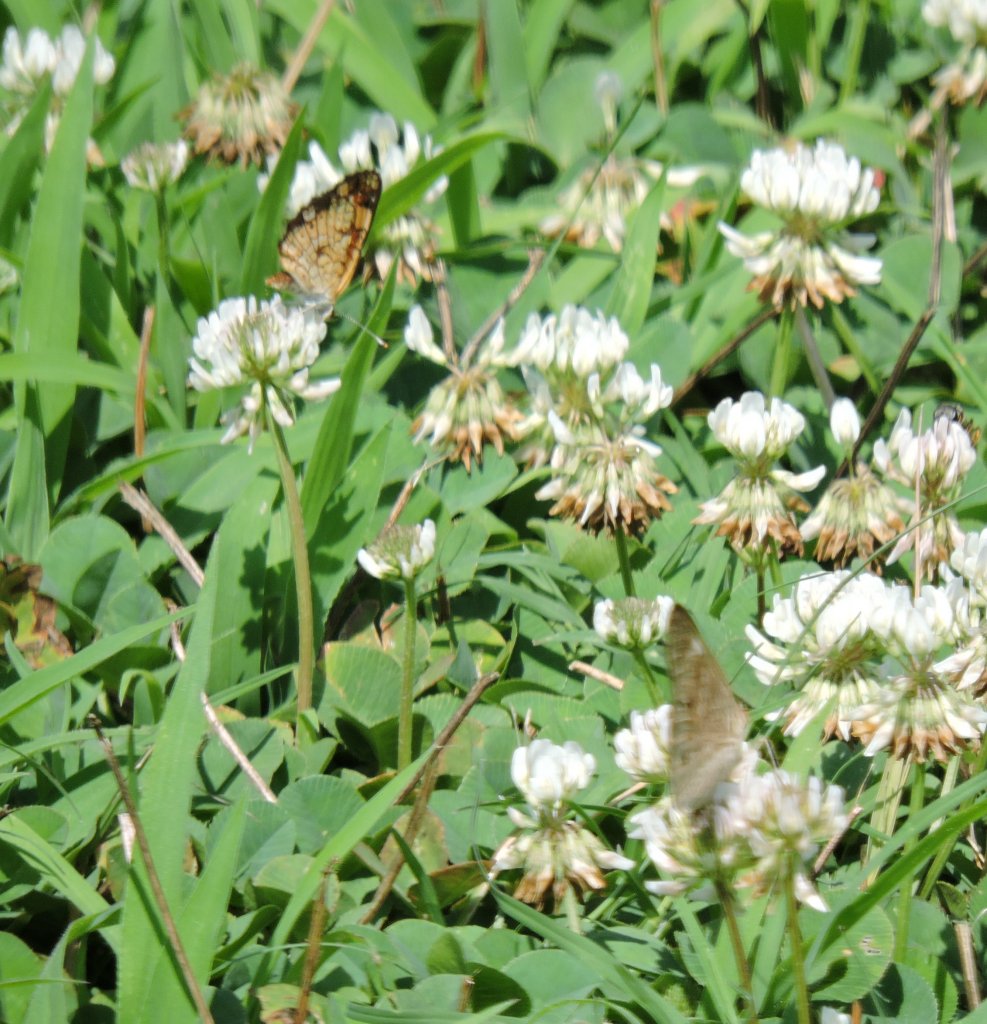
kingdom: Animalia
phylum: Arthropoda
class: Insecta
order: Lepidoptera
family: Nymphalidae
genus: Phyciodes
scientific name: Phyciodes tharos
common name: Pearl Crescent
